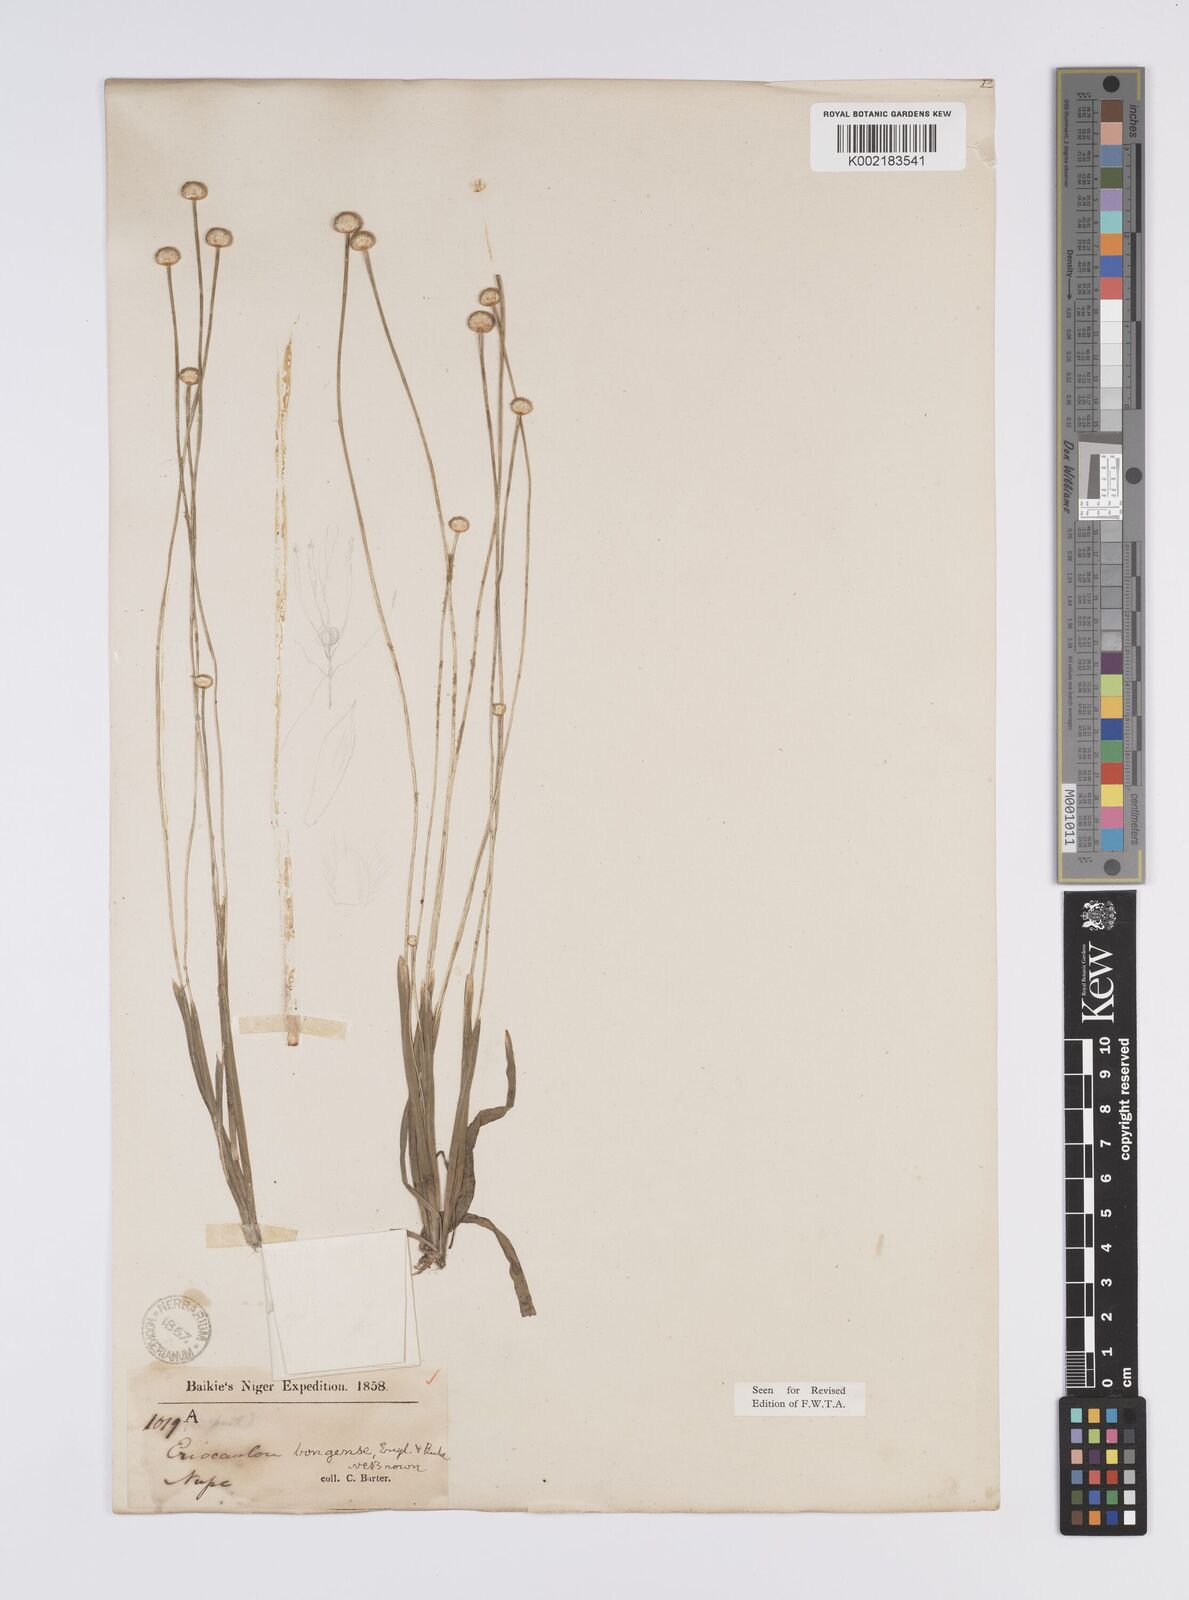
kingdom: Plantae
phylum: Tracheophyta
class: Liliopsida
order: Poales
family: Eriocaulaceae
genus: Eriocaulon
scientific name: Eriocaulon bongense
